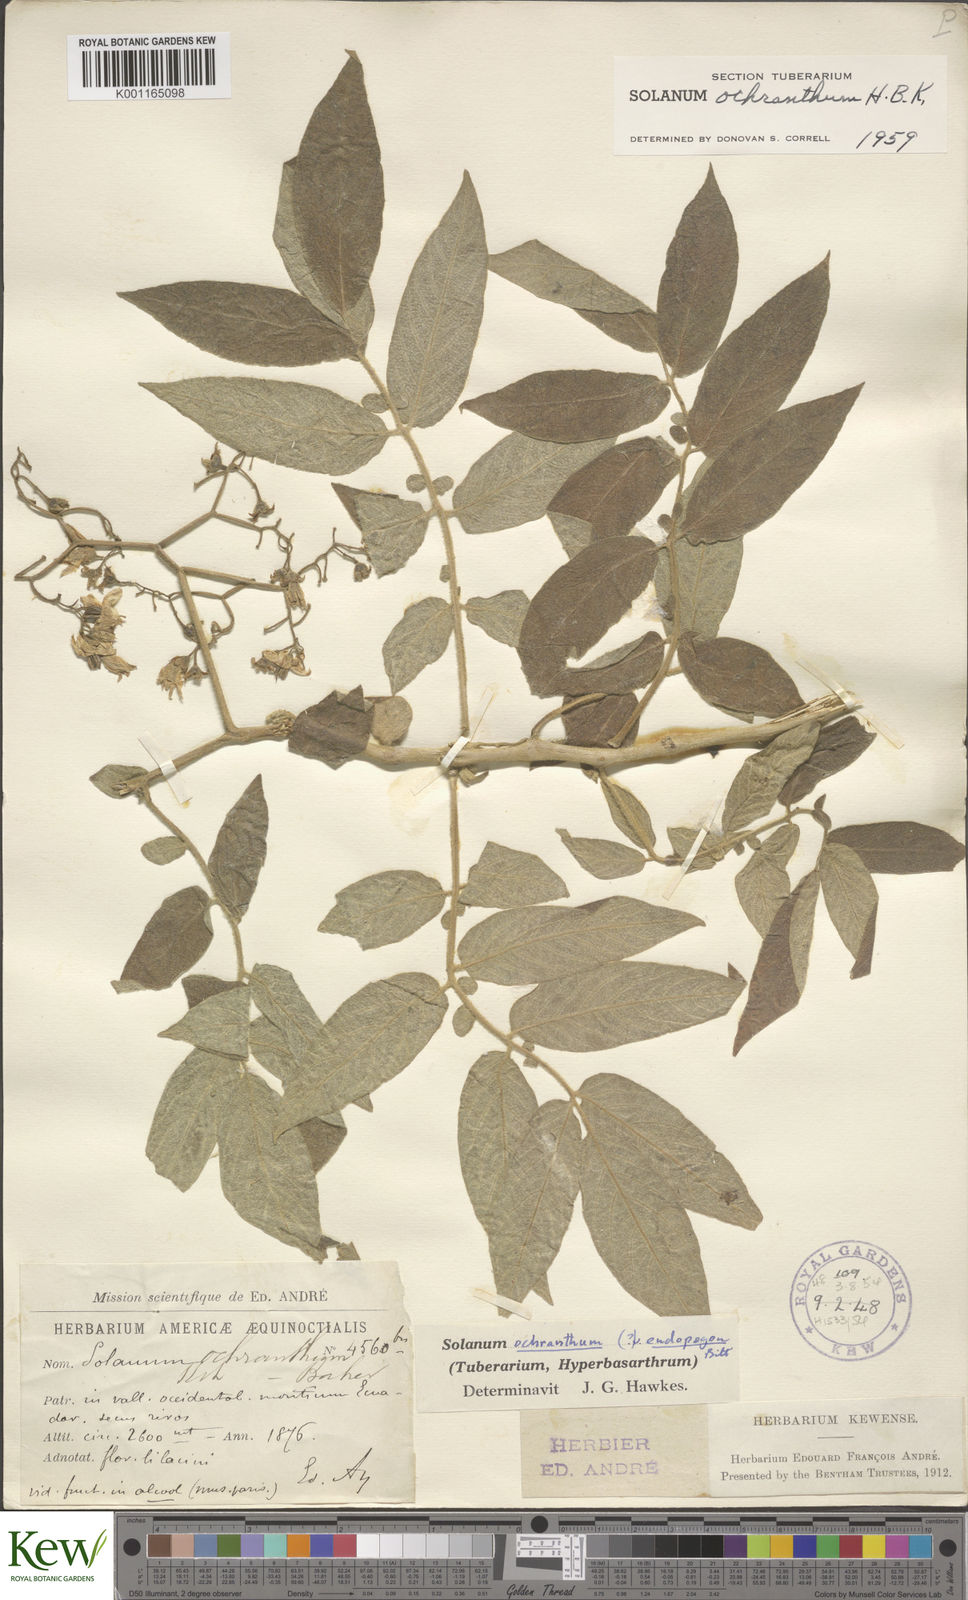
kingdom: Plantae
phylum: Tracheophyta
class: Magnoliopsida
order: Solanales
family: Solanaceae
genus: Solanum
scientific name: Solanum ochranthum
